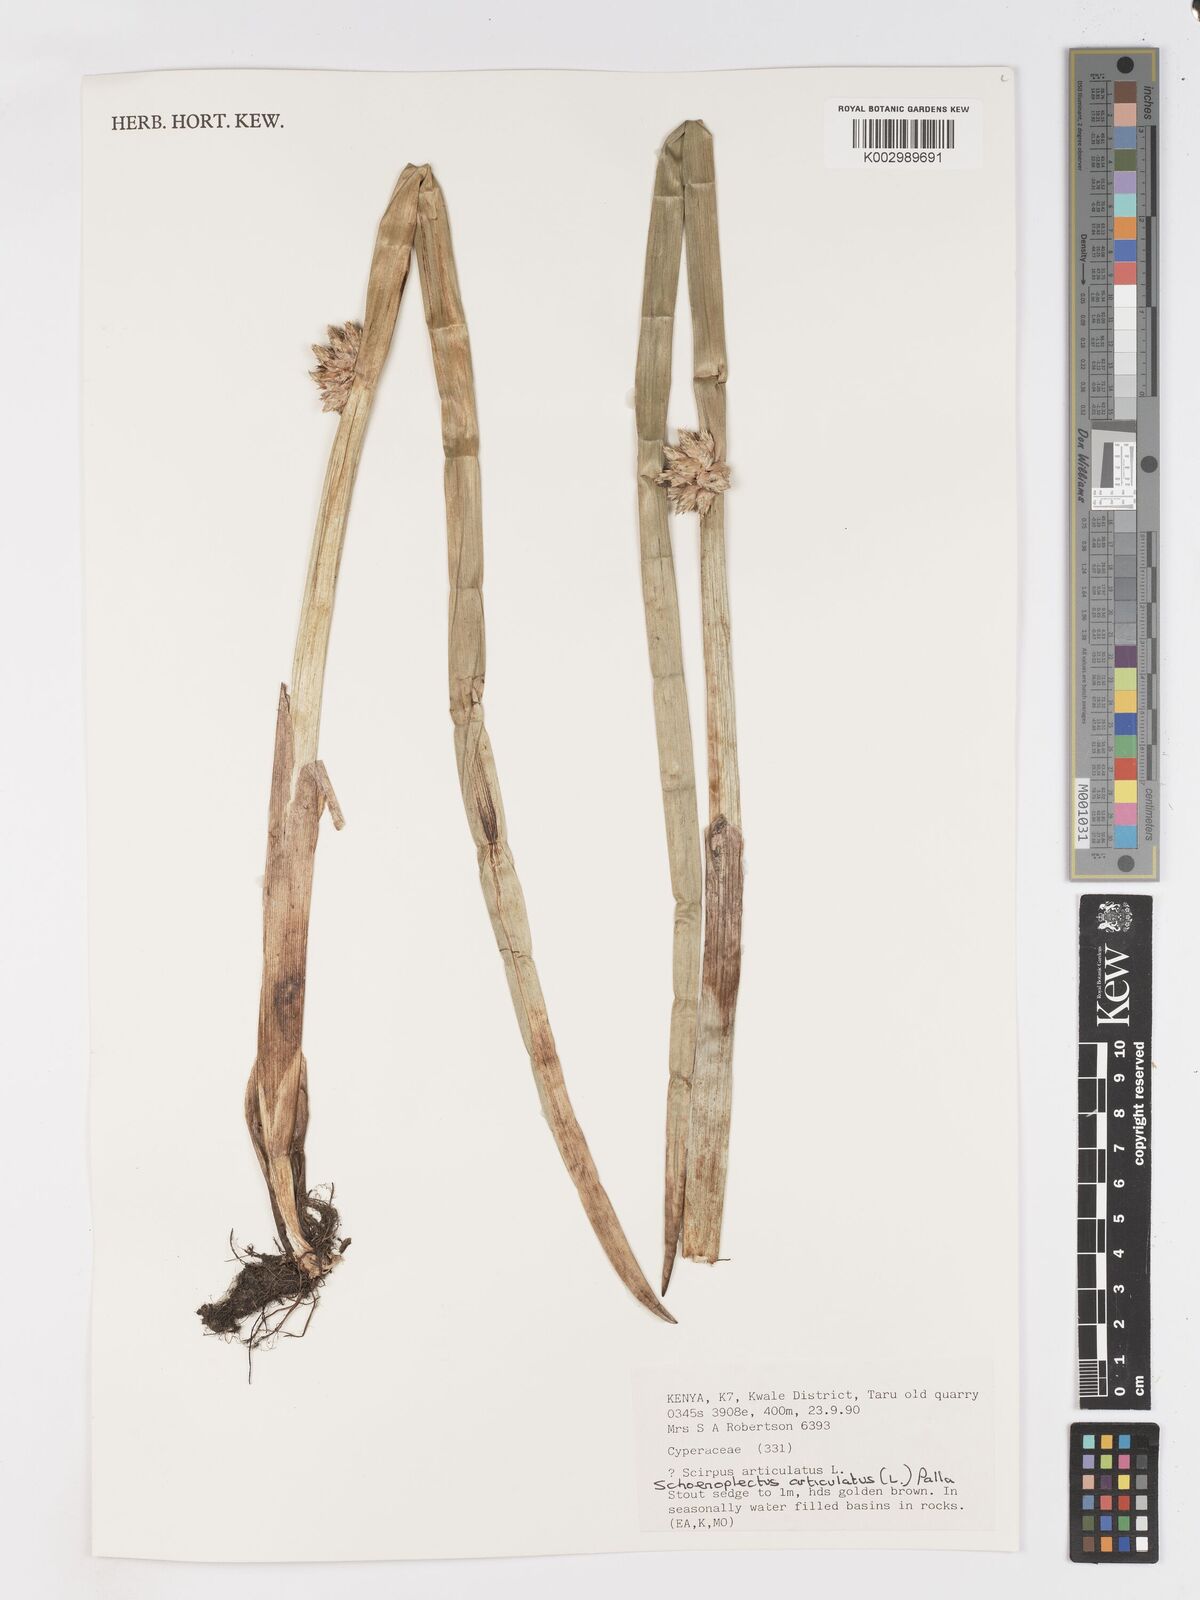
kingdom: Plantae
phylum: Tracheophyta
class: Liliopsida
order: Poales
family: Cyperaceae
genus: Schoenoplectiella
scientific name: Schoenoplectiella articulata
